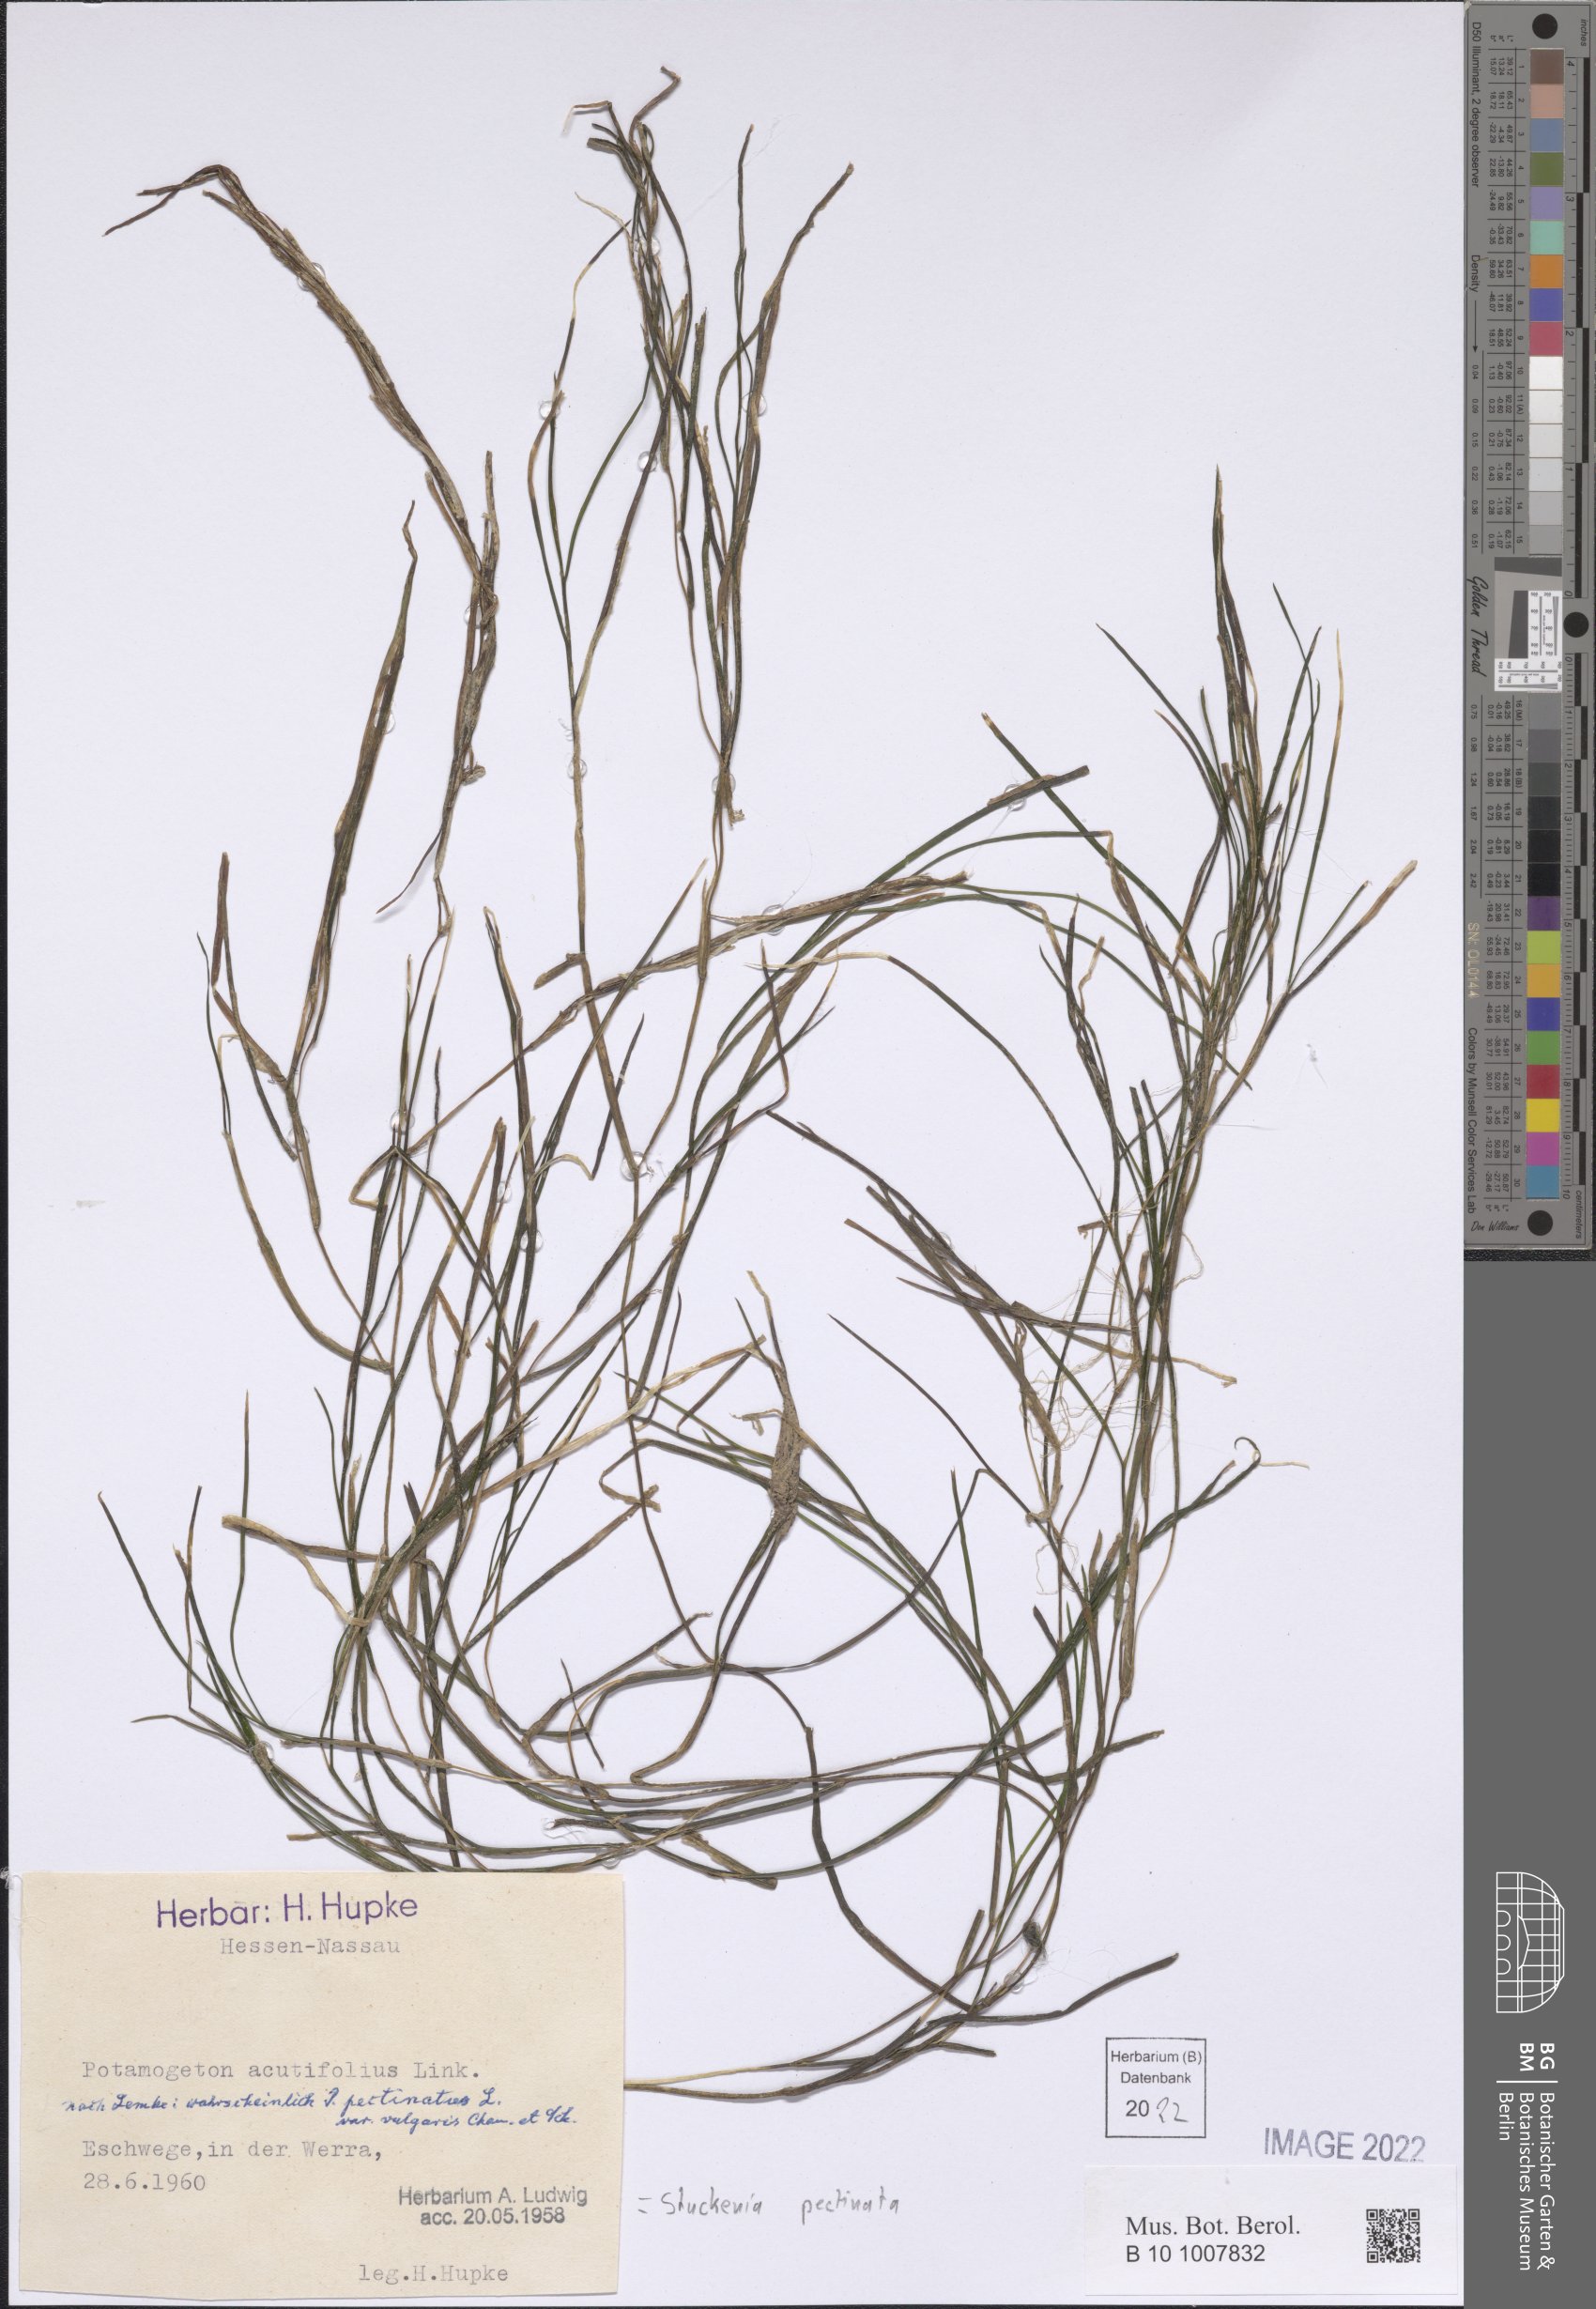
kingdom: Plantae
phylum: Tracheophyta
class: Liliopsida
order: Alismatales
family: Potamogetonaceae
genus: Stuckenia
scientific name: Stuckenia pectinata
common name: Sago pondweed
